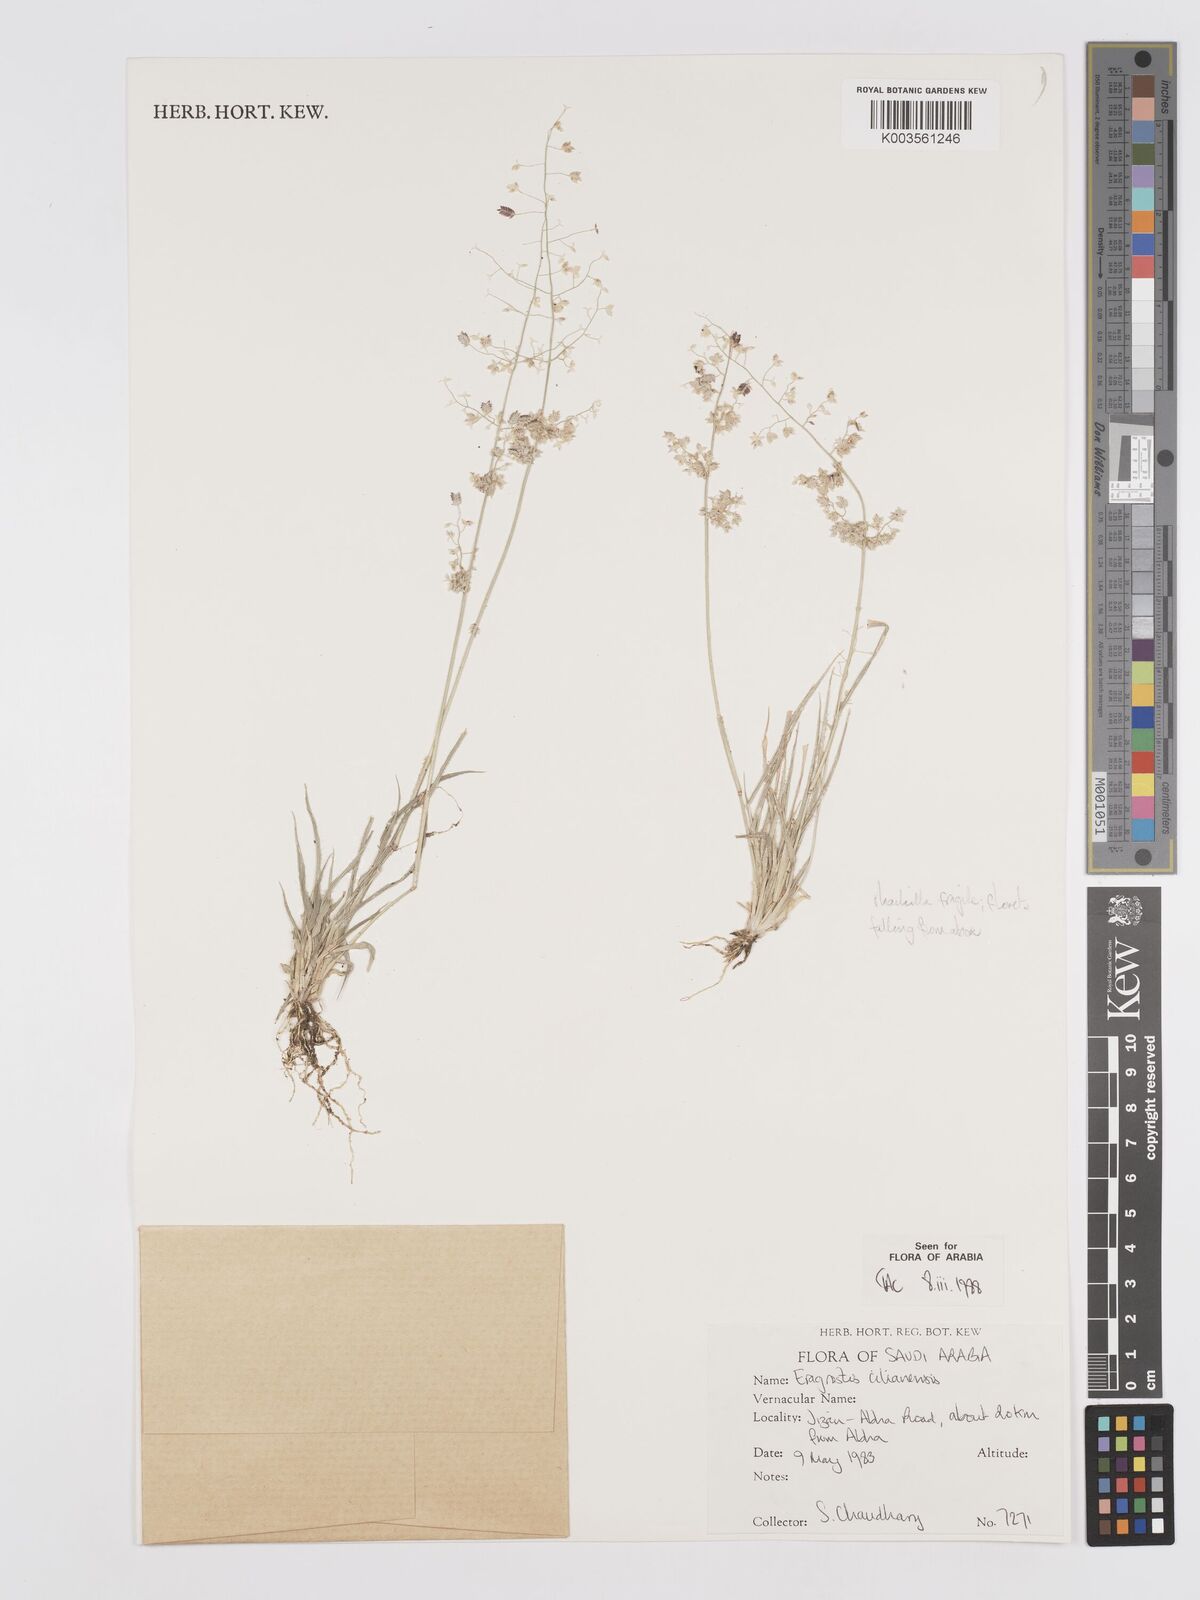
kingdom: Plantae
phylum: Tracheophyta
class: Liliopsida
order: Poales
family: Poaceae
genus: Eragrostis
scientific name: Eragrostis cilianensis
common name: Stinkgrass
